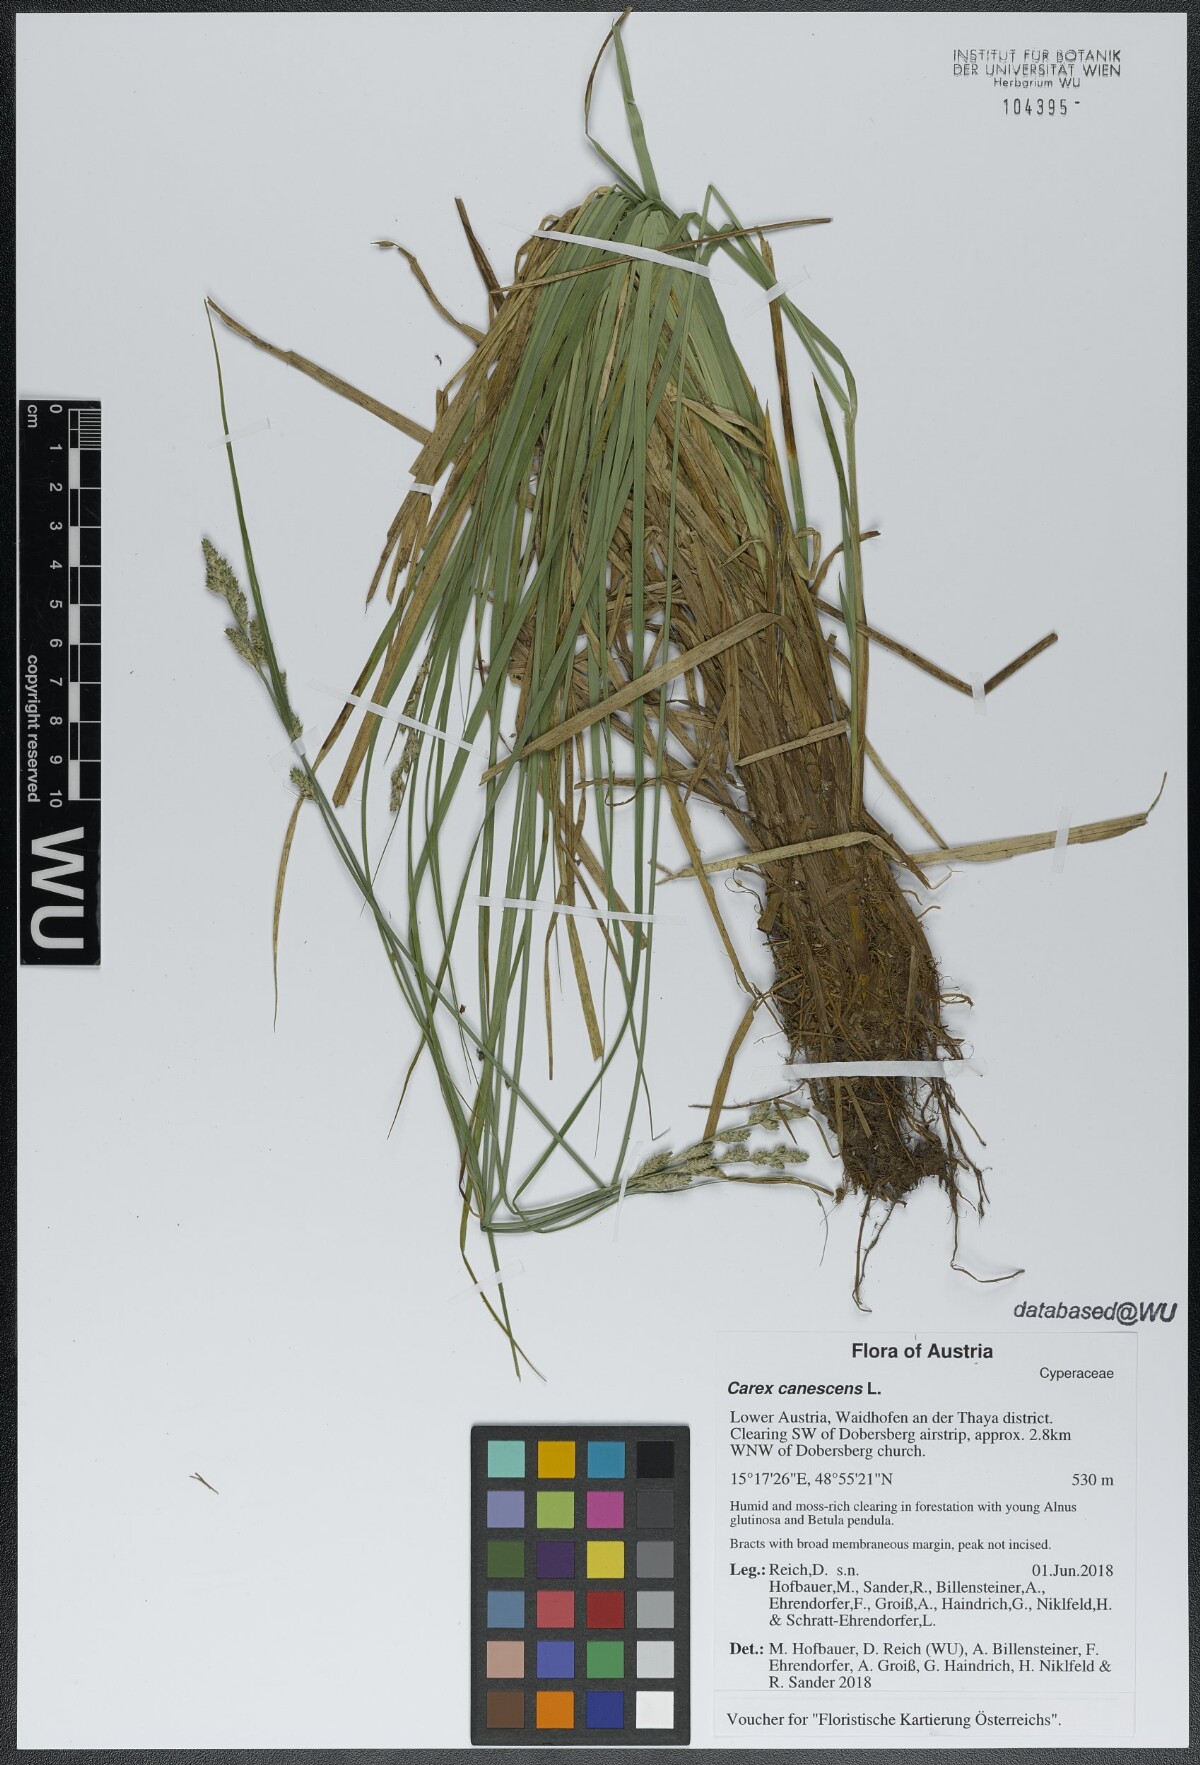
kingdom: Plantae
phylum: Tracheophyta
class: Liliopsida
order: Poales
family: Cyperaceae
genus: Carex
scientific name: Carex canescens
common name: White sedge
